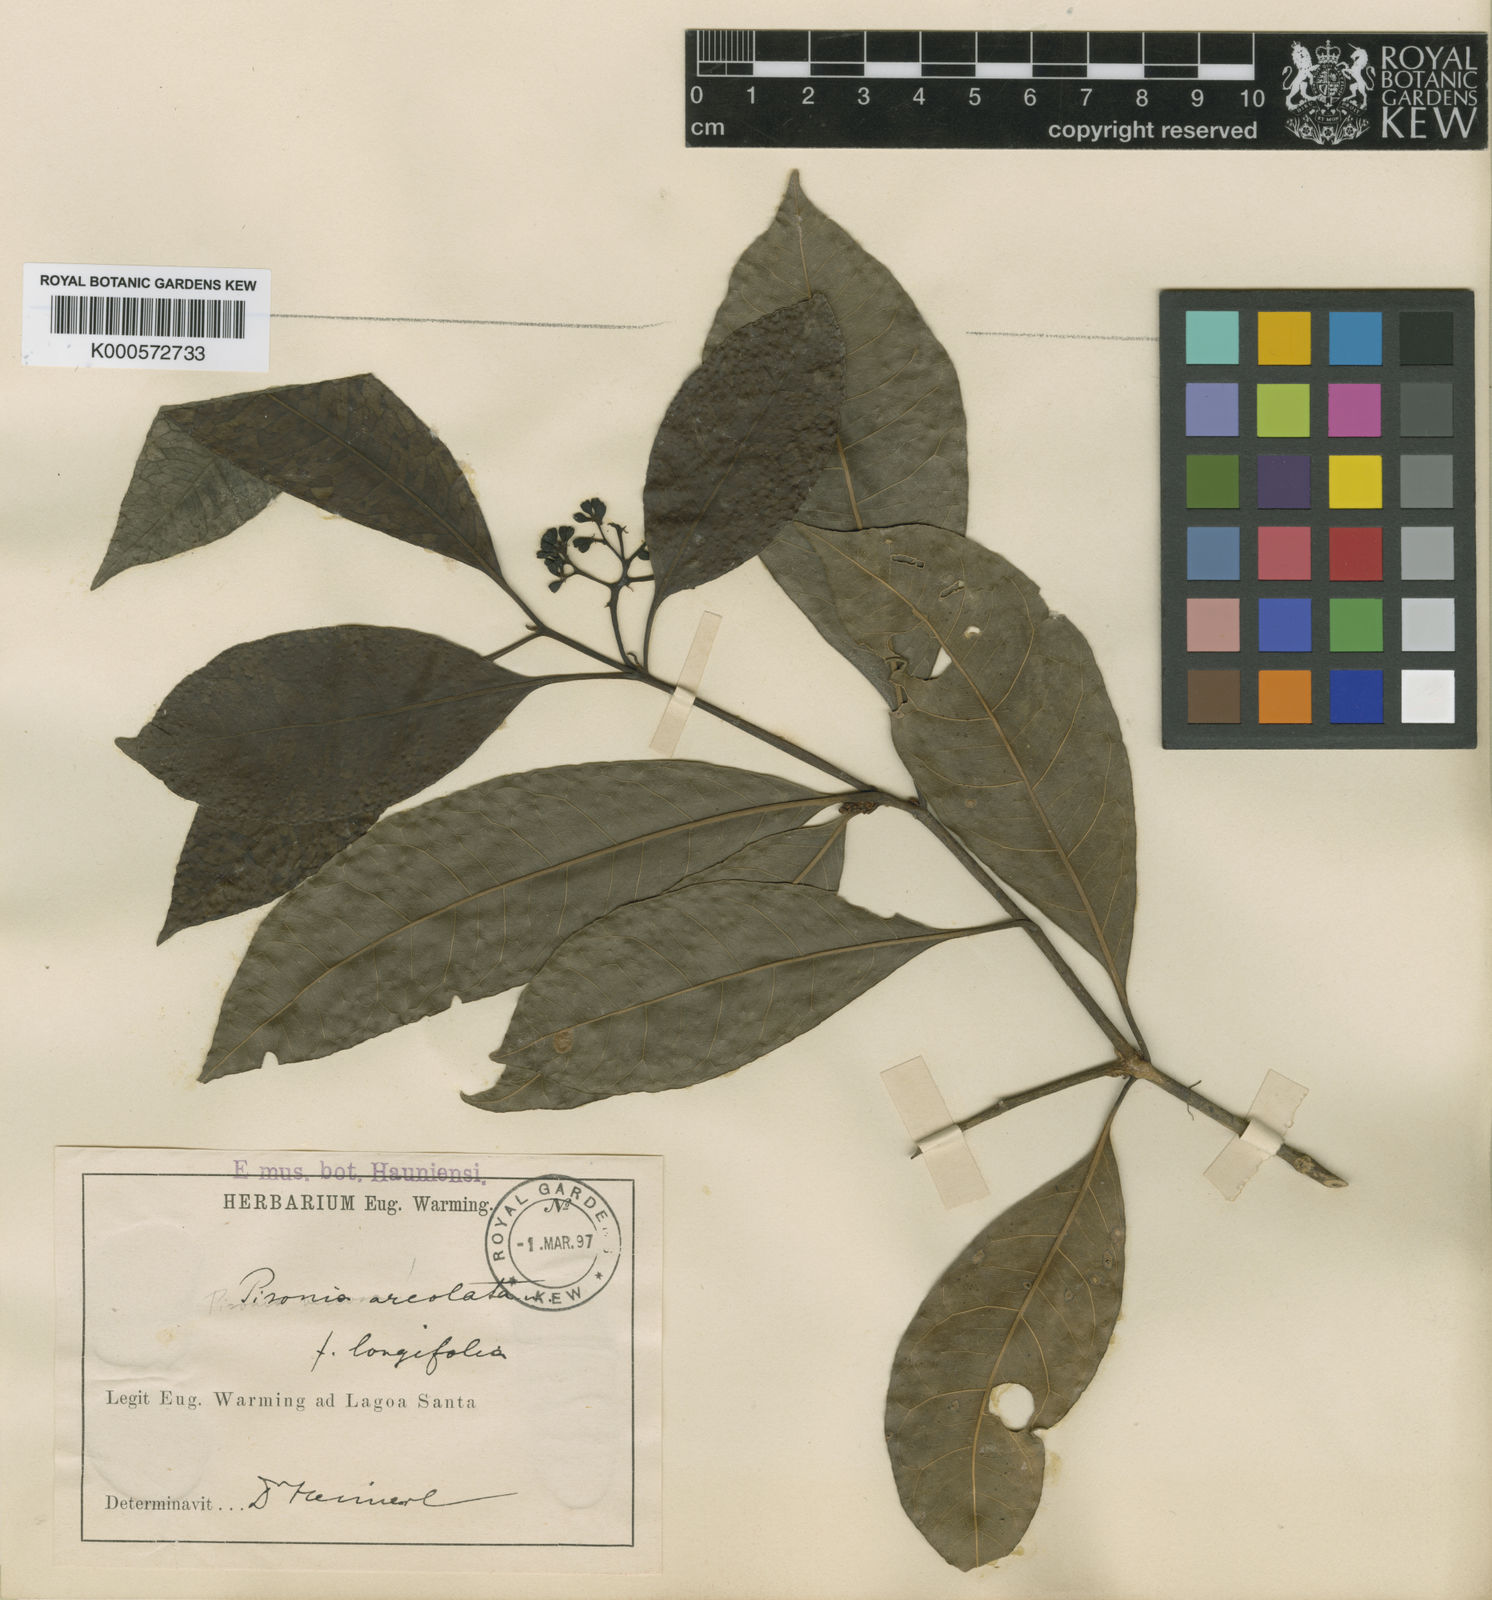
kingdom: Plantae
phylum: Tracheophyta
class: Magnoliopsida
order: Caryophyllales
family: Nyctaginaceae
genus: Guapira
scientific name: Guapira areolata
